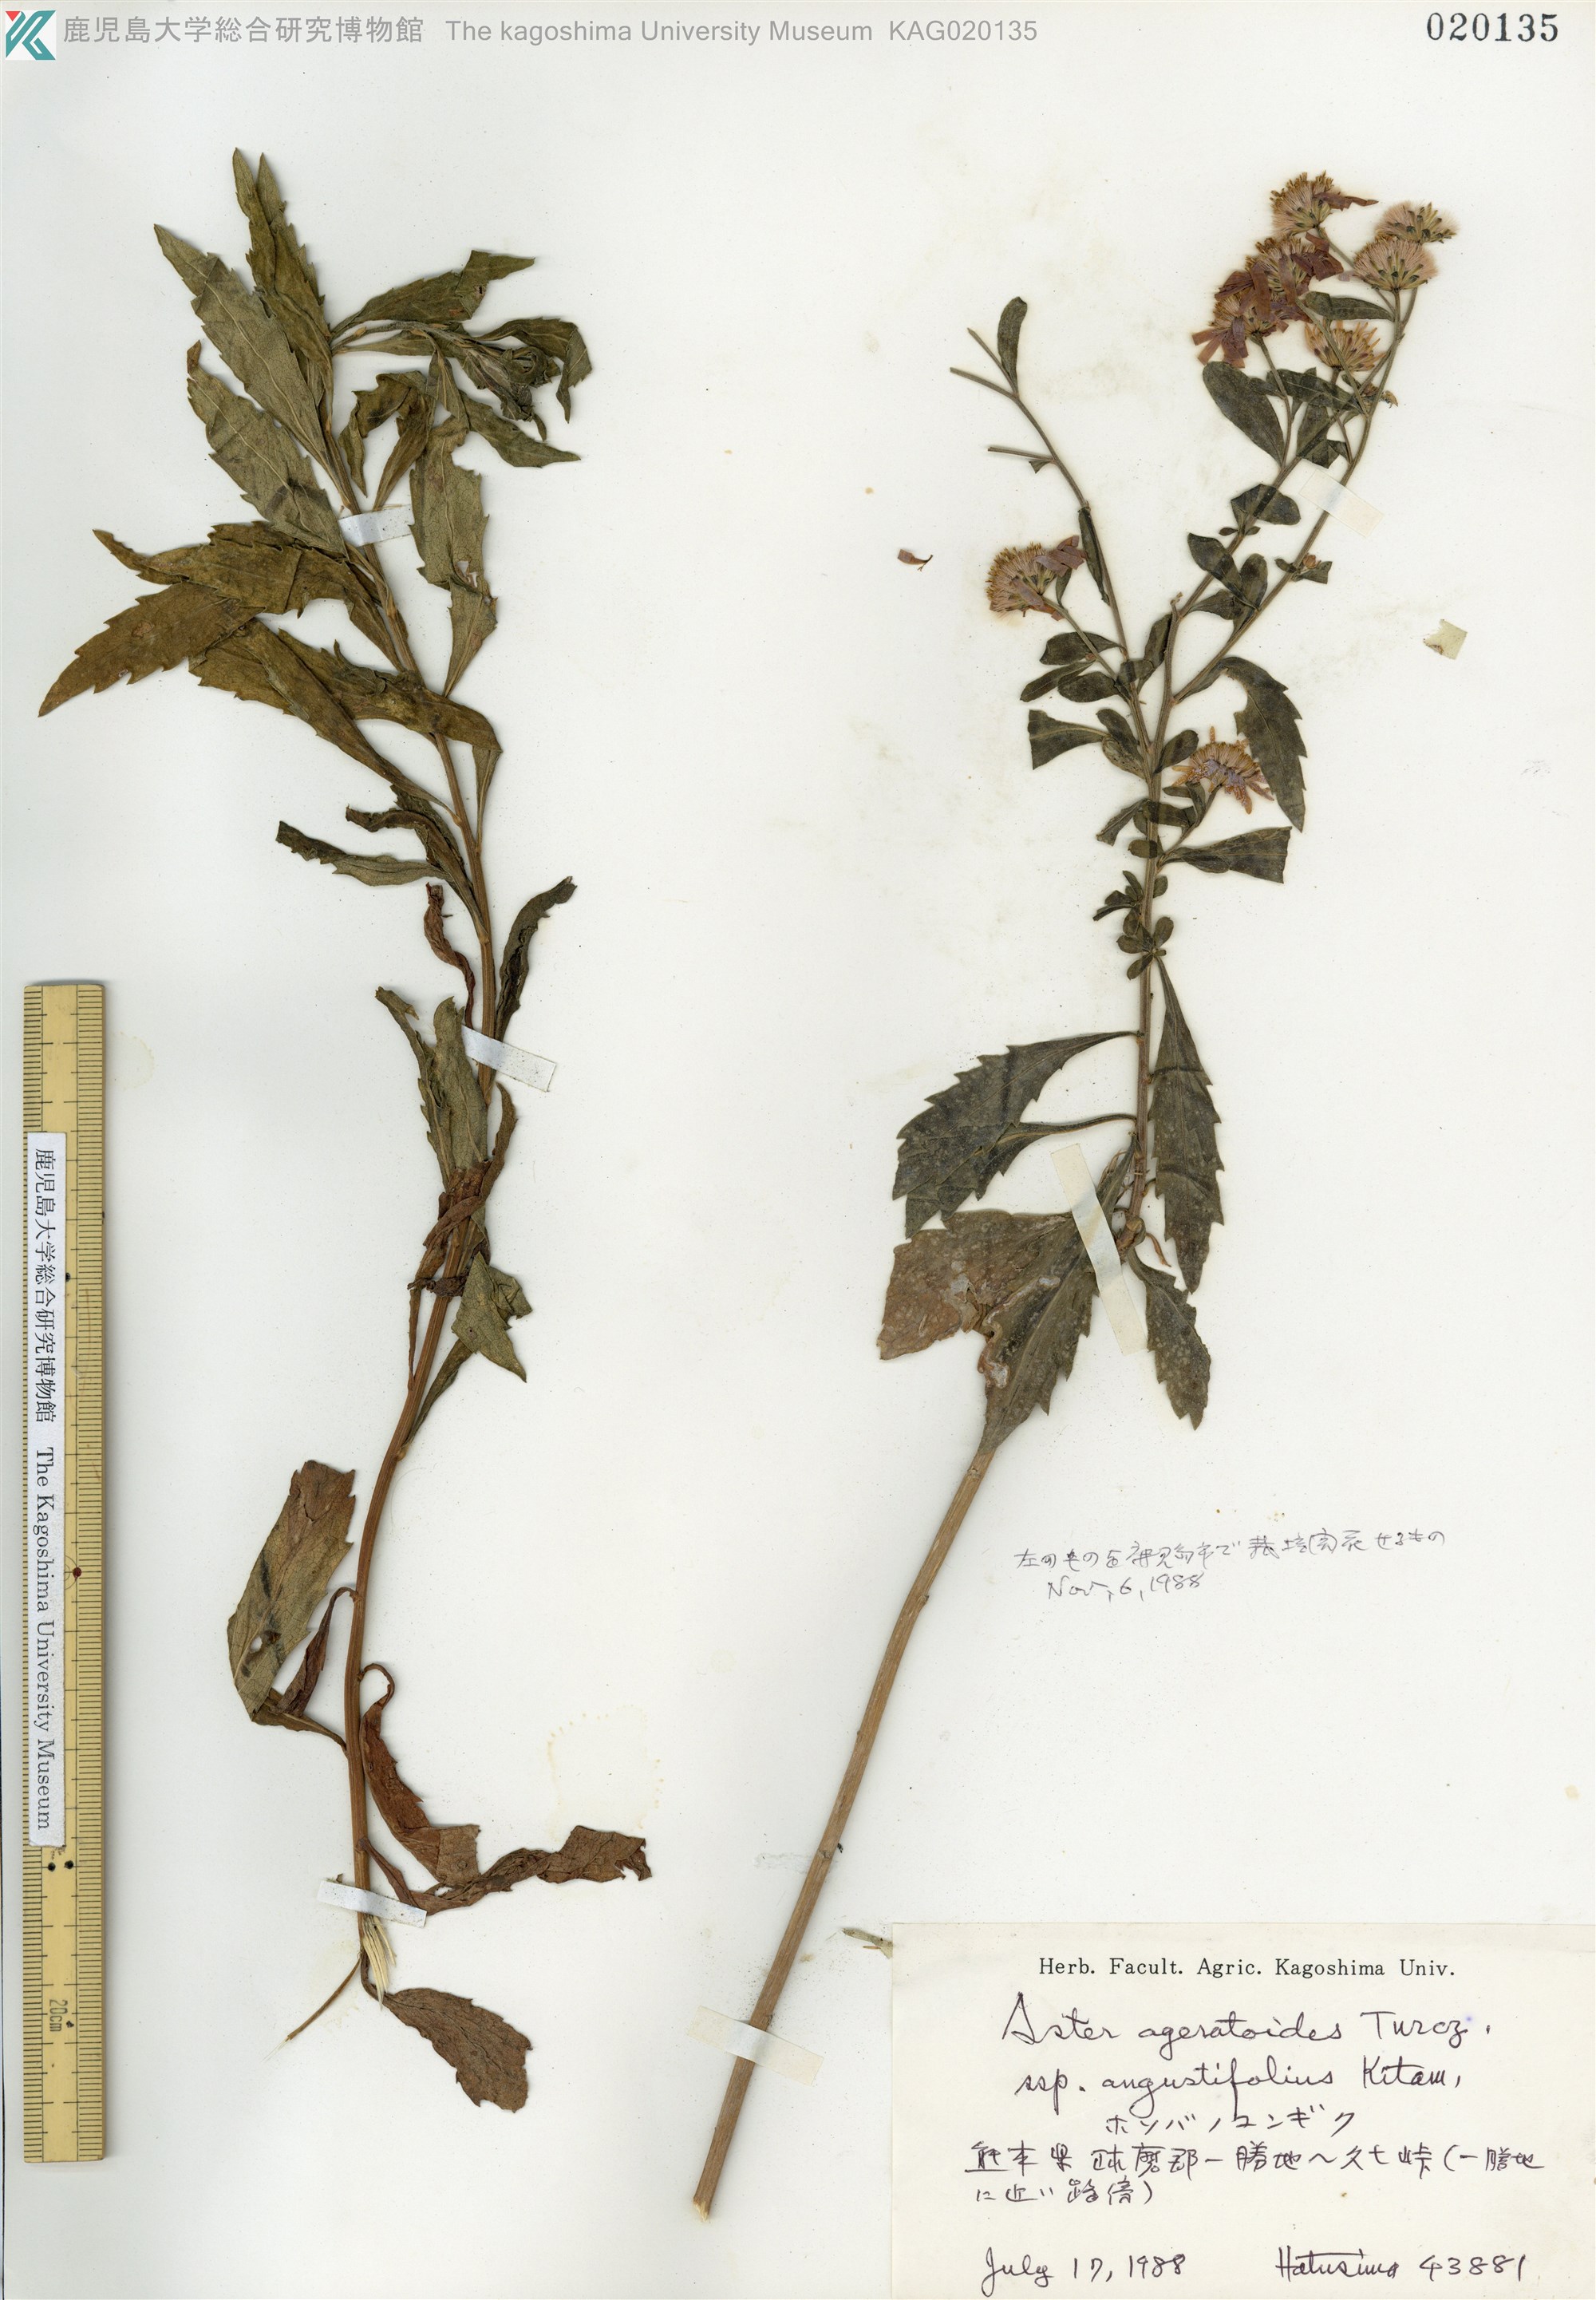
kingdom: Plantae
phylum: Tracheophyta
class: Magnoliopsida
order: Asterales
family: Asteraceae
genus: Aster
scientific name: Aster microcephalus
